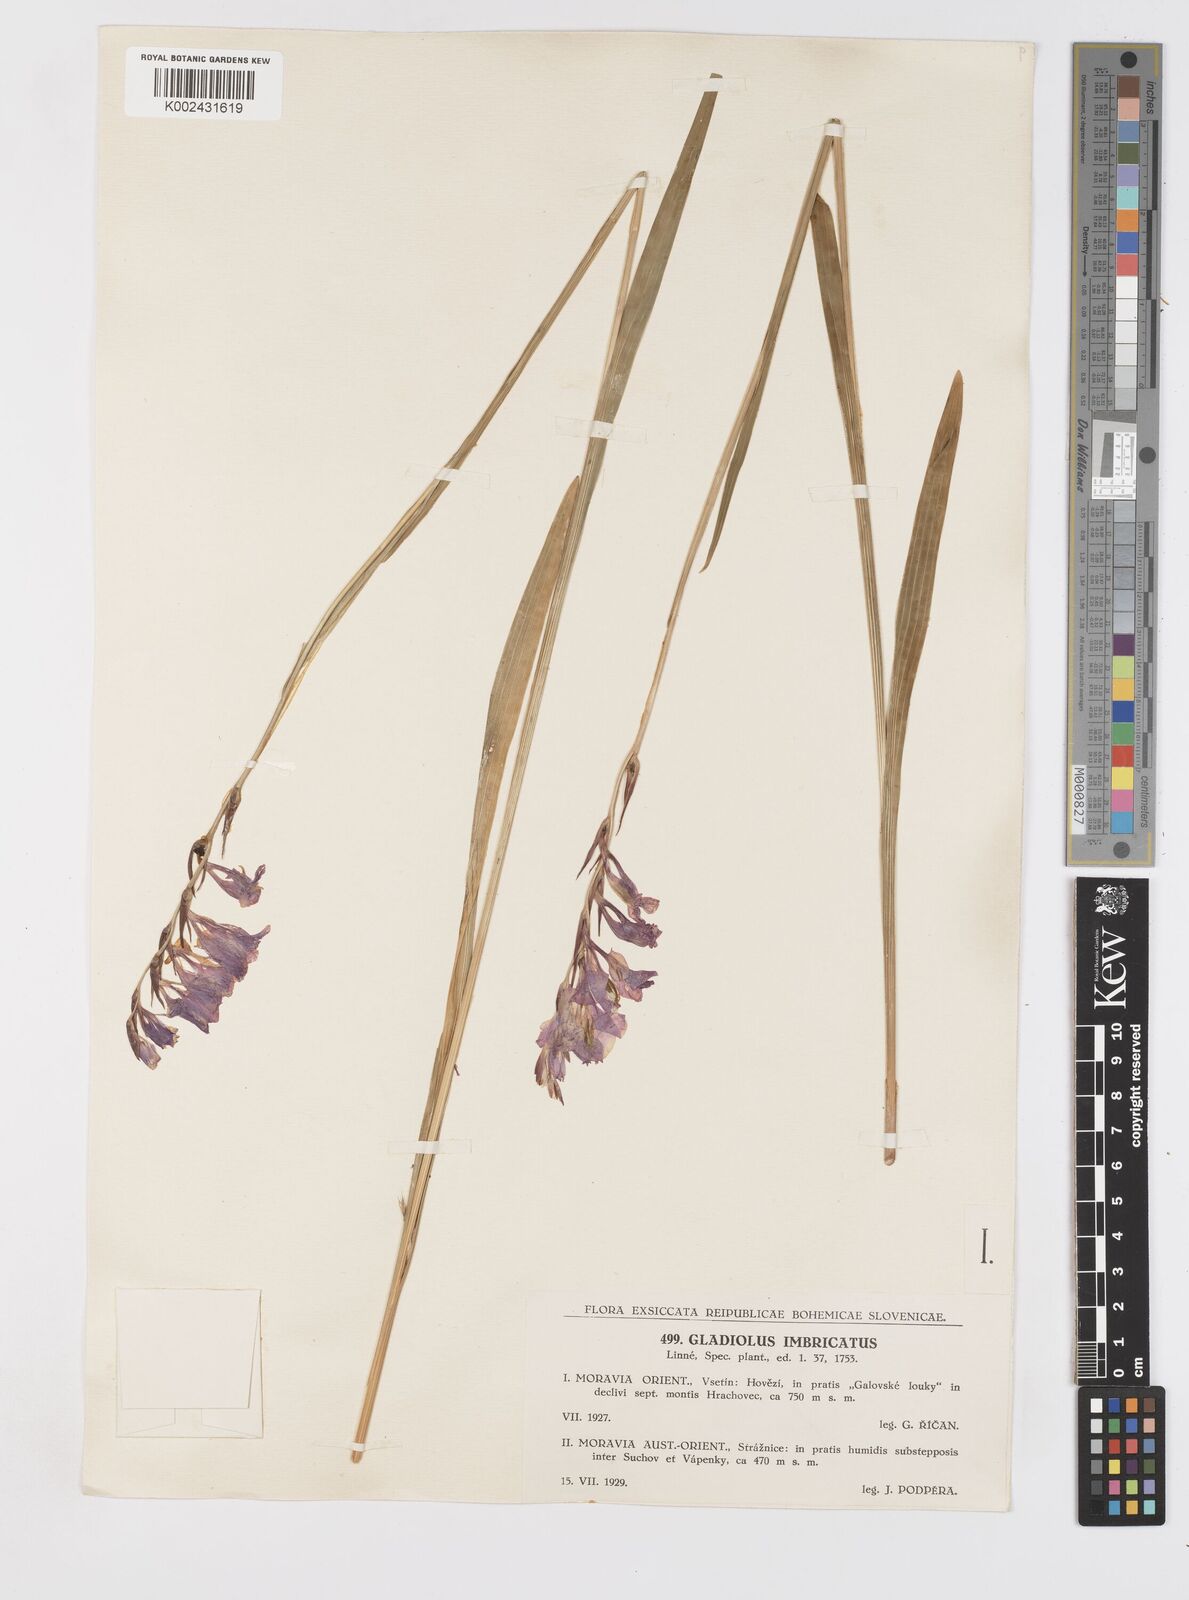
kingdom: Plantae
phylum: Tracheophyta
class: Liliopsida
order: Asparagales
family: Iridaceae
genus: Gladiolus
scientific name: Gladiolus communis
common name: Eastern gladiolus
